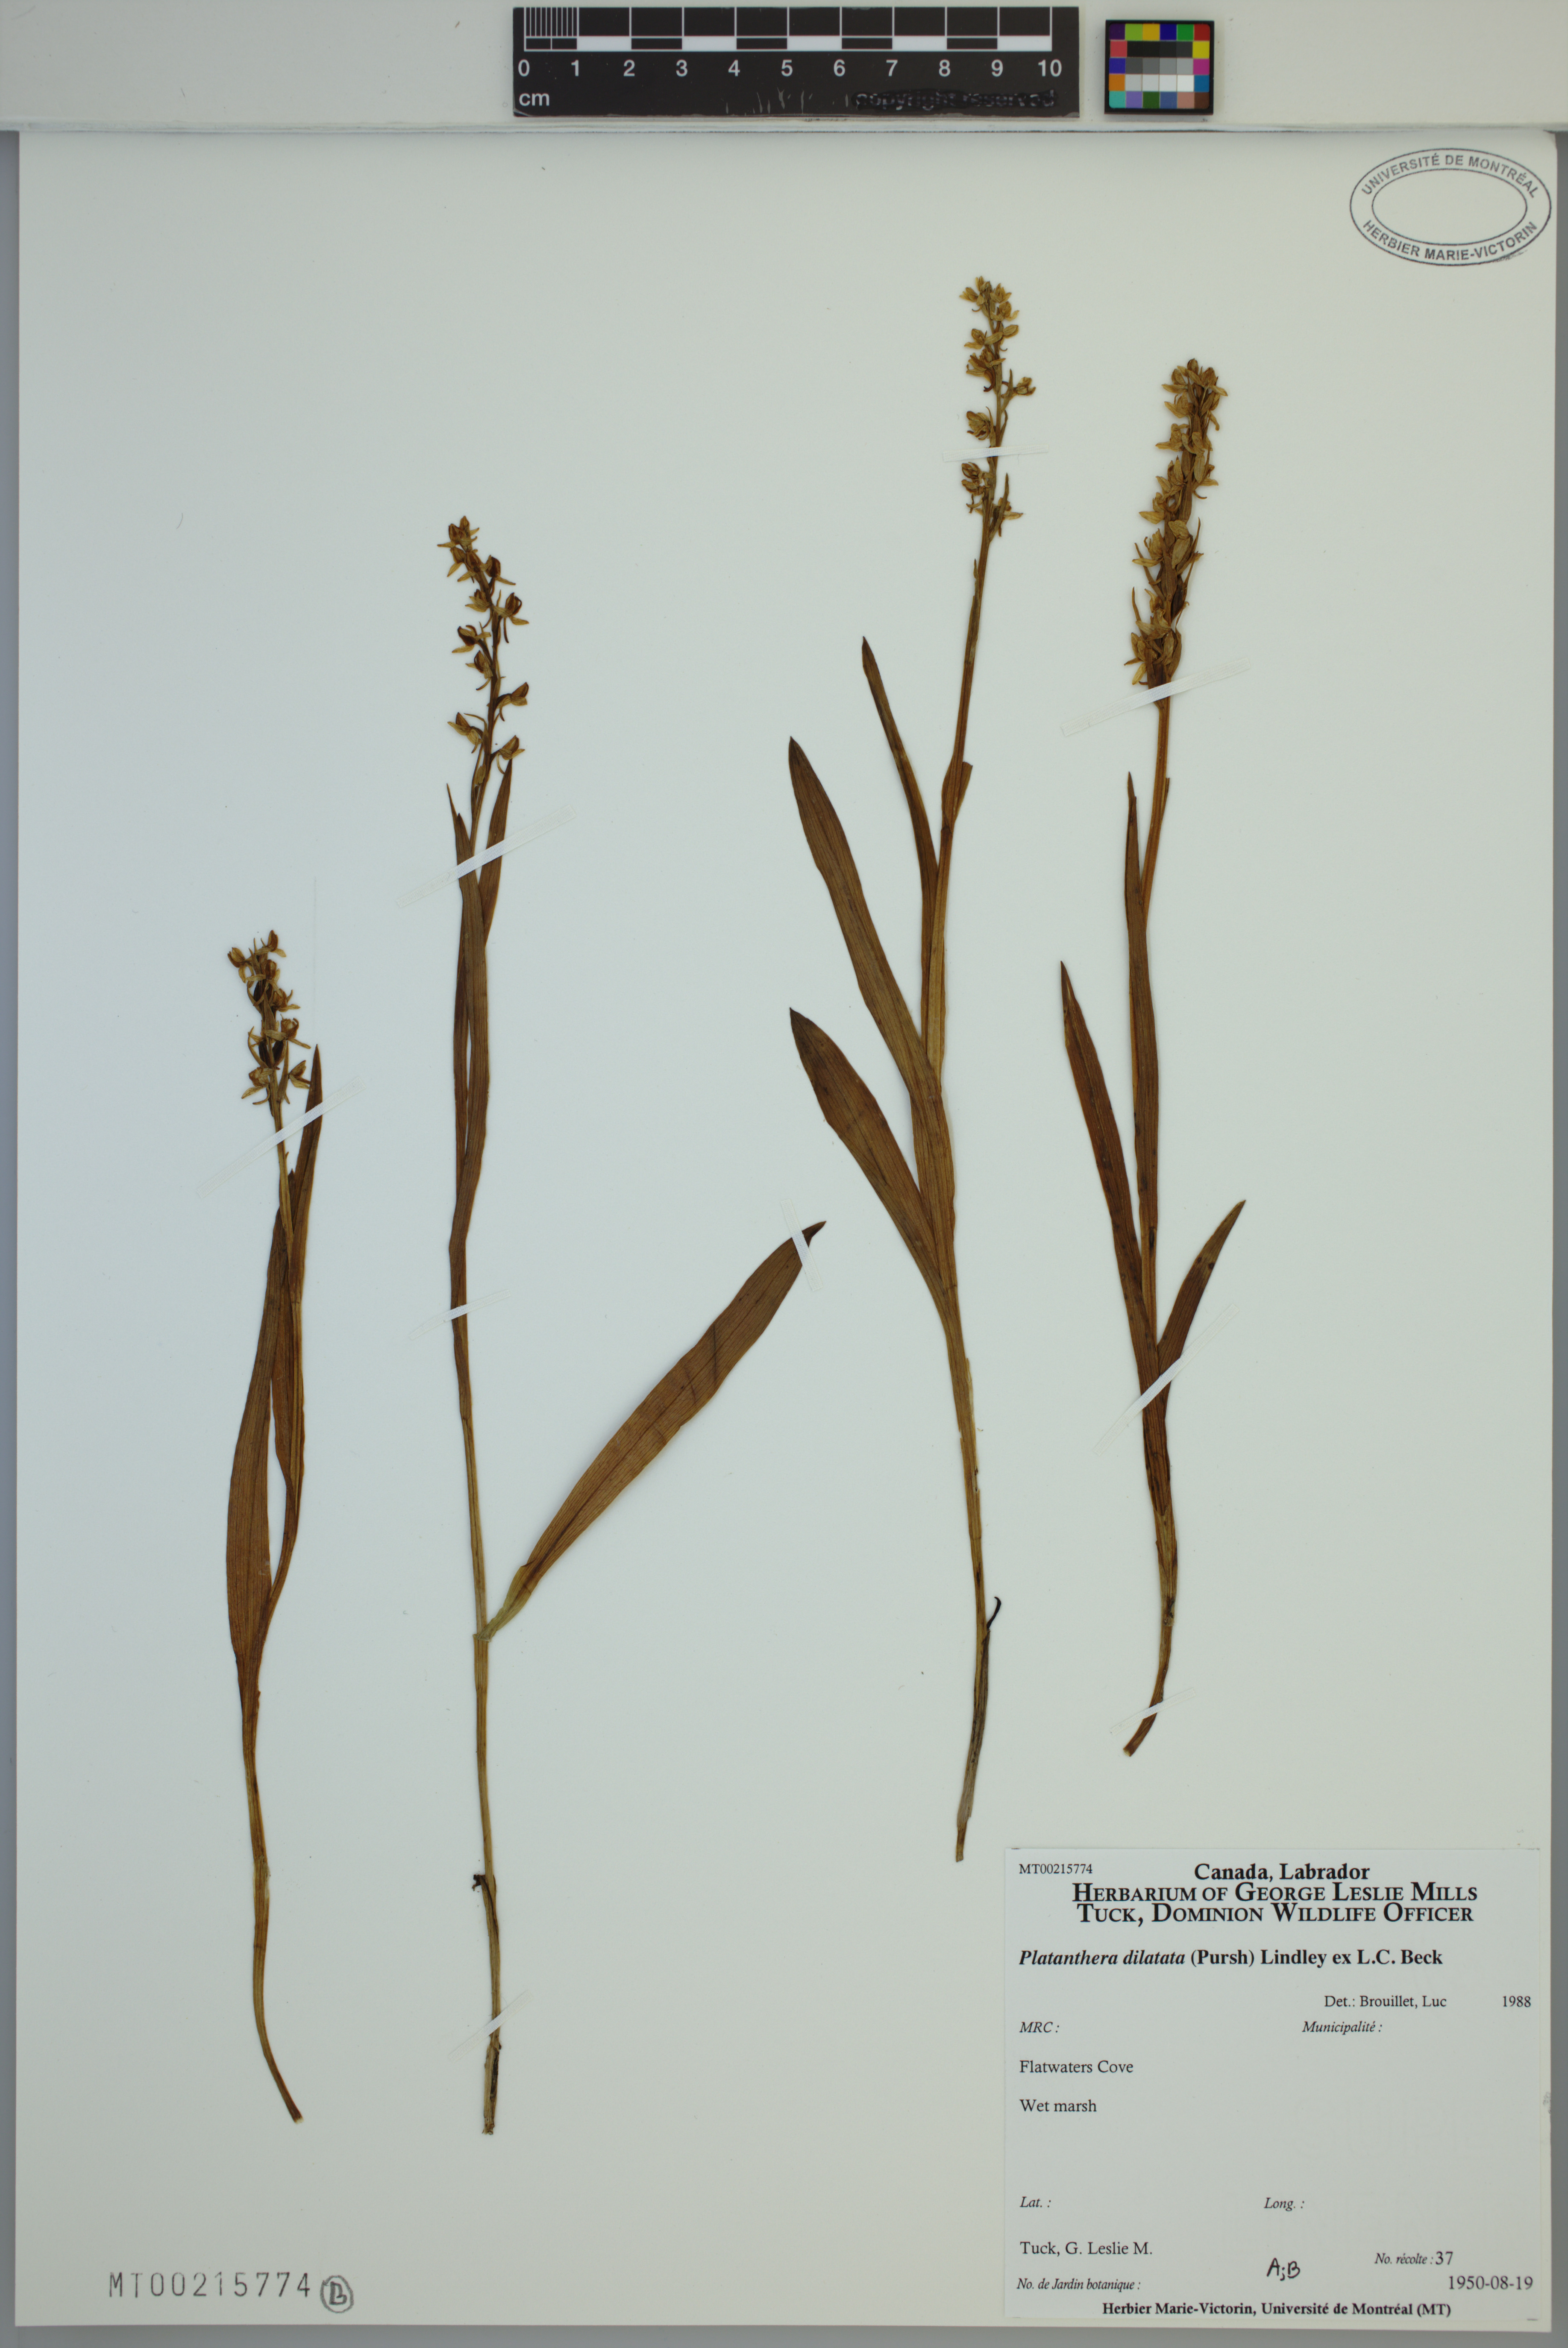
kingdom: Plantae
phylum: Tracheophyta
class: Liliopsida
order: Asparagales
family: Orchidaceae
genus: Platanthera
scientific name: Platanthera dilatata
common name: Bog candles
